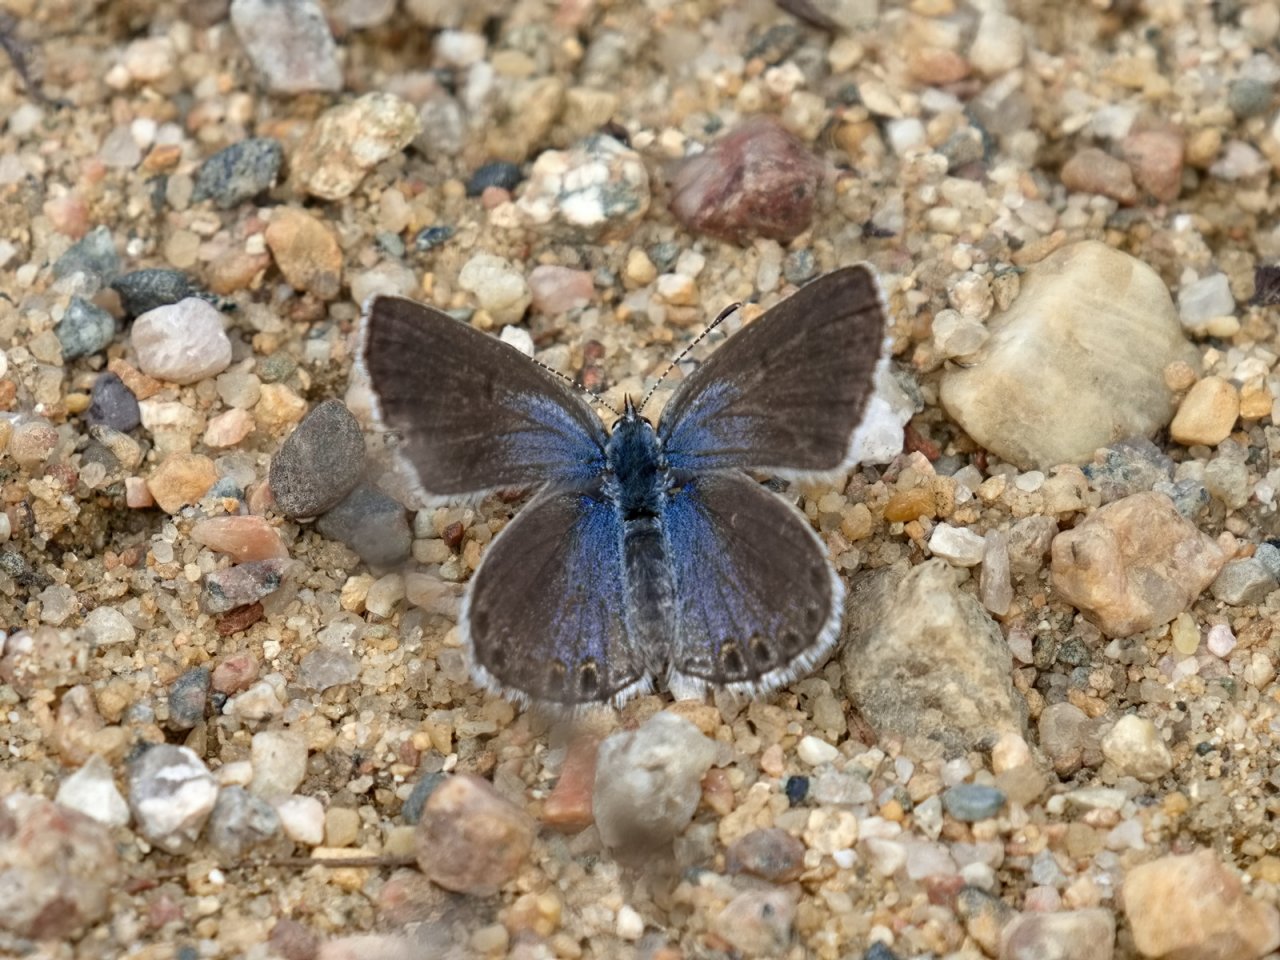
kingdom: Animalia
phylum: Arthropoda
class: Insecta
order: Lepidoptera
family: Lycaenidae
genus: Lycaeides
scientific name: Lycaeides idas
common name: Northern Blue
